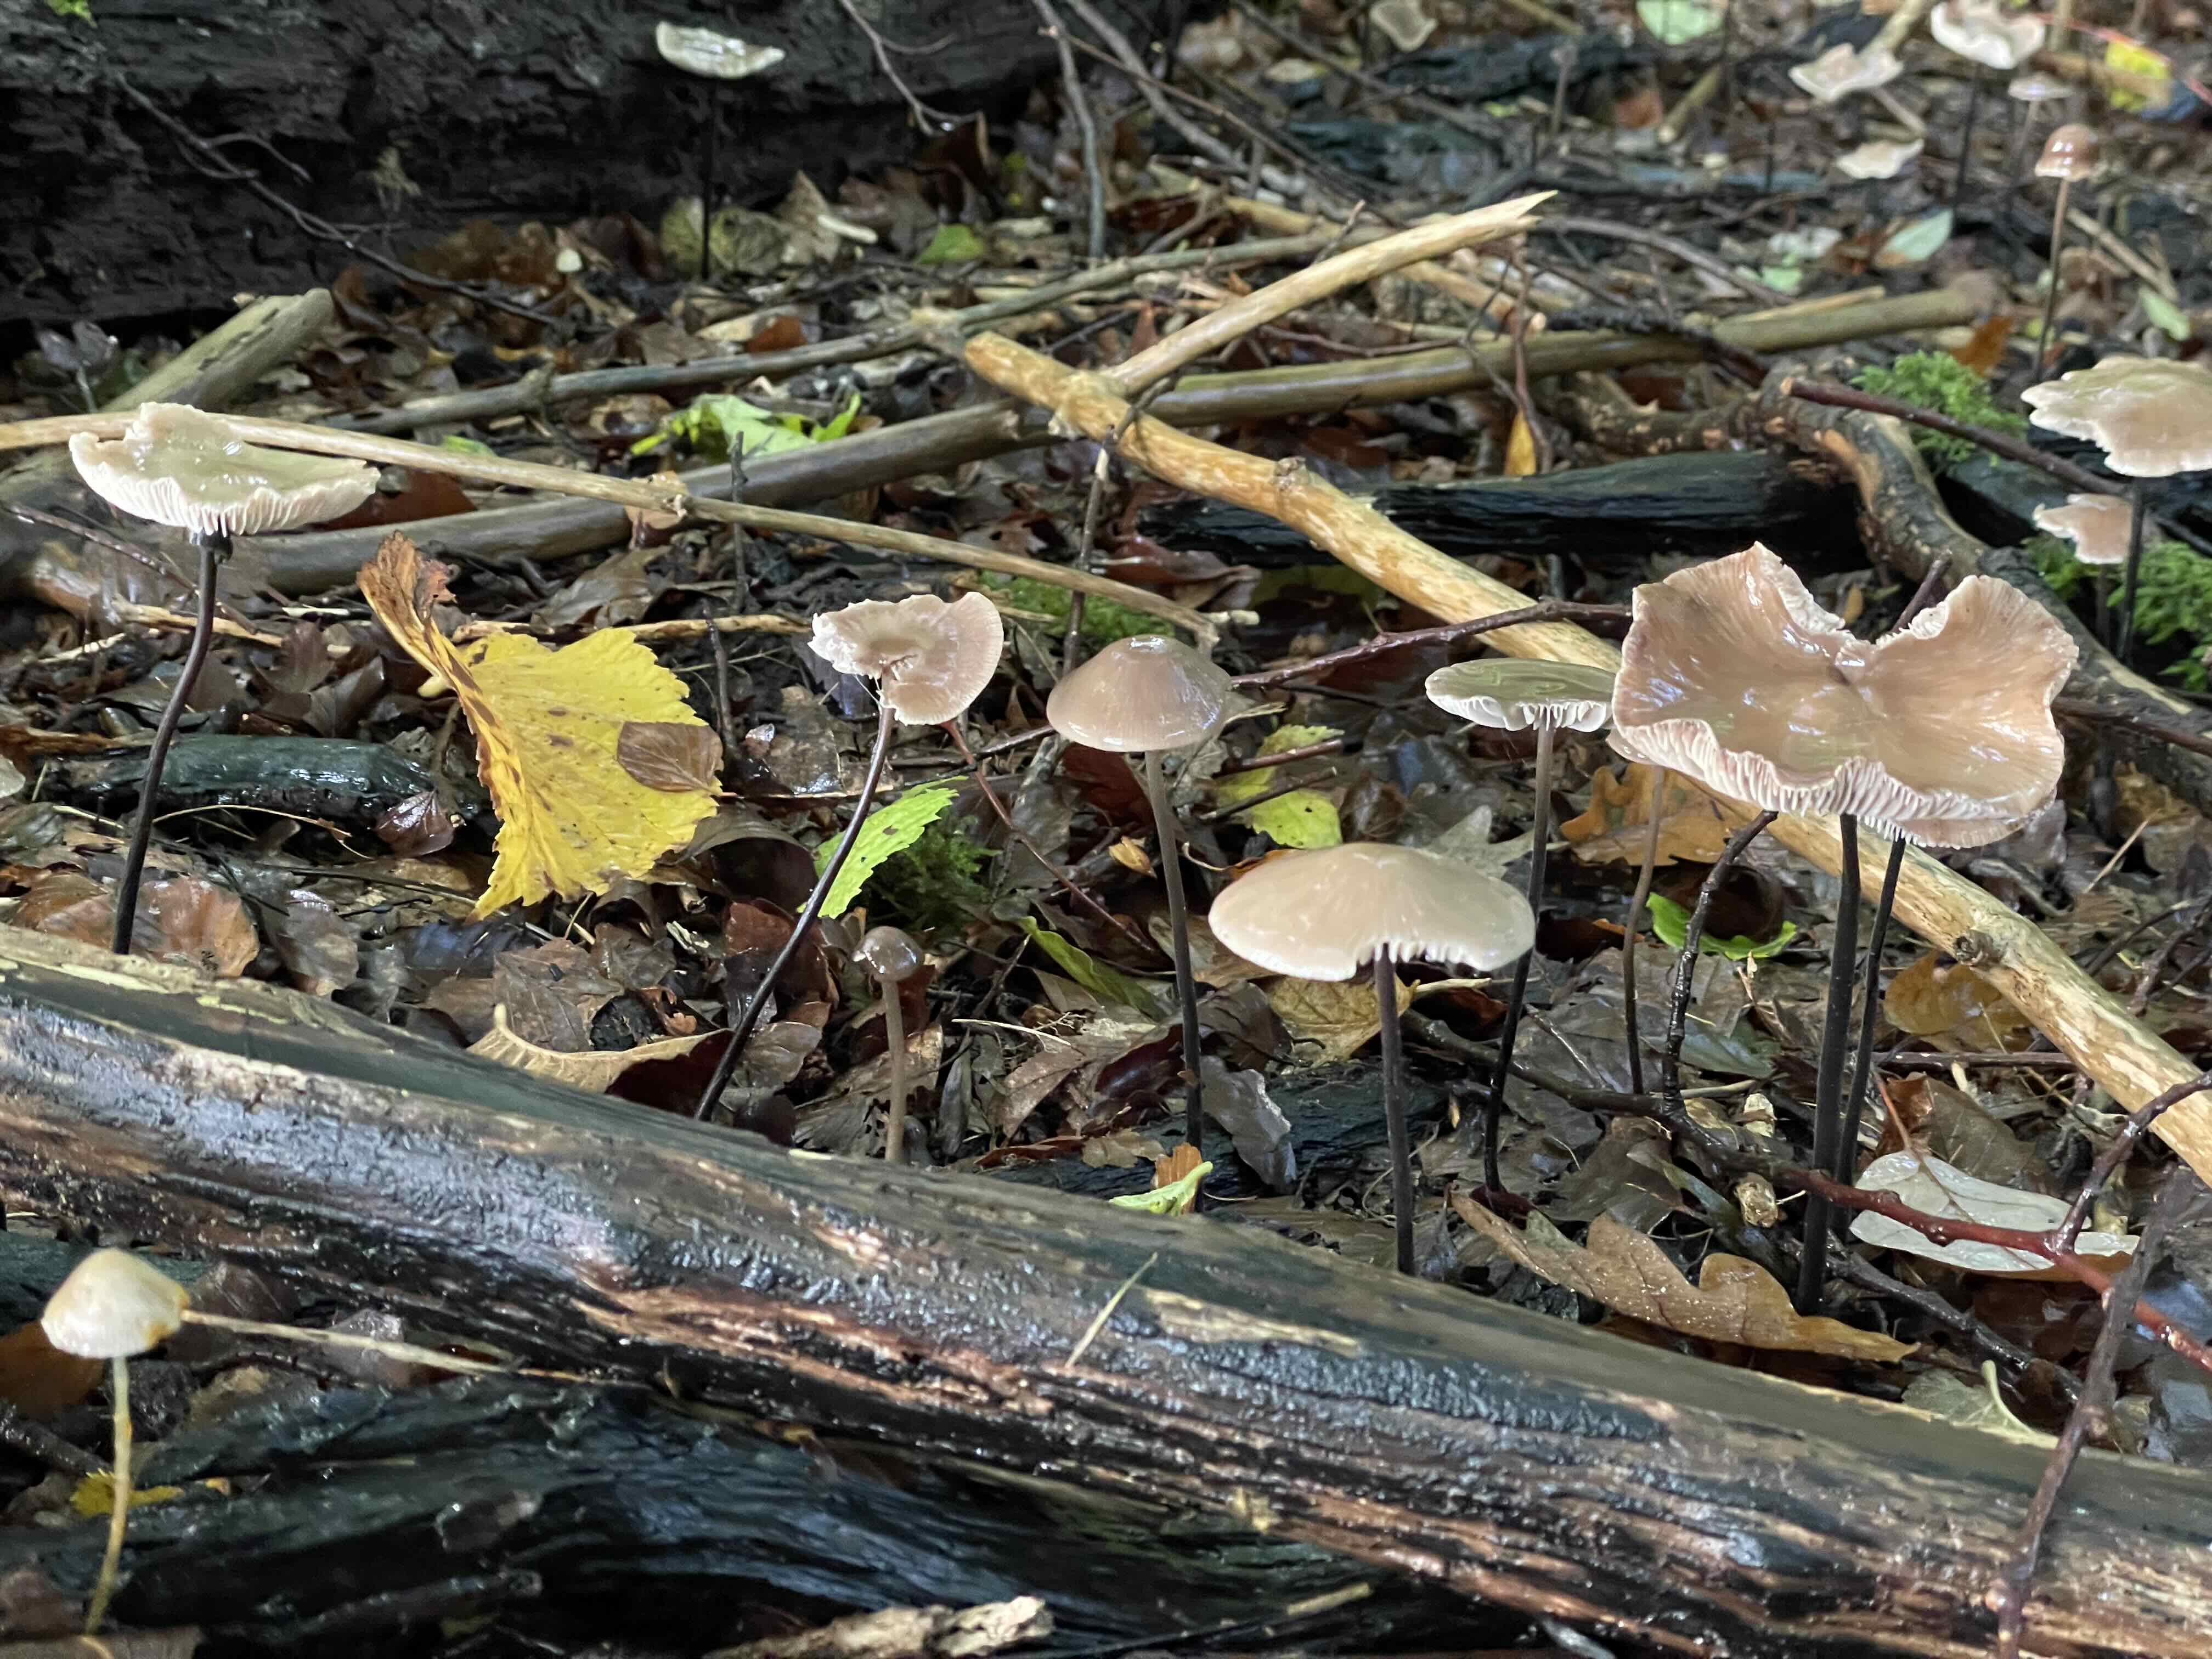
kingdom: Fungi
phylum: Basidiomycota
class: Agaricomycetes
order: Agaricales
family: Omphalotaceae
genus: Mycetinis
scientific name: Mycetinis alliaceus
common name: stor løghat
